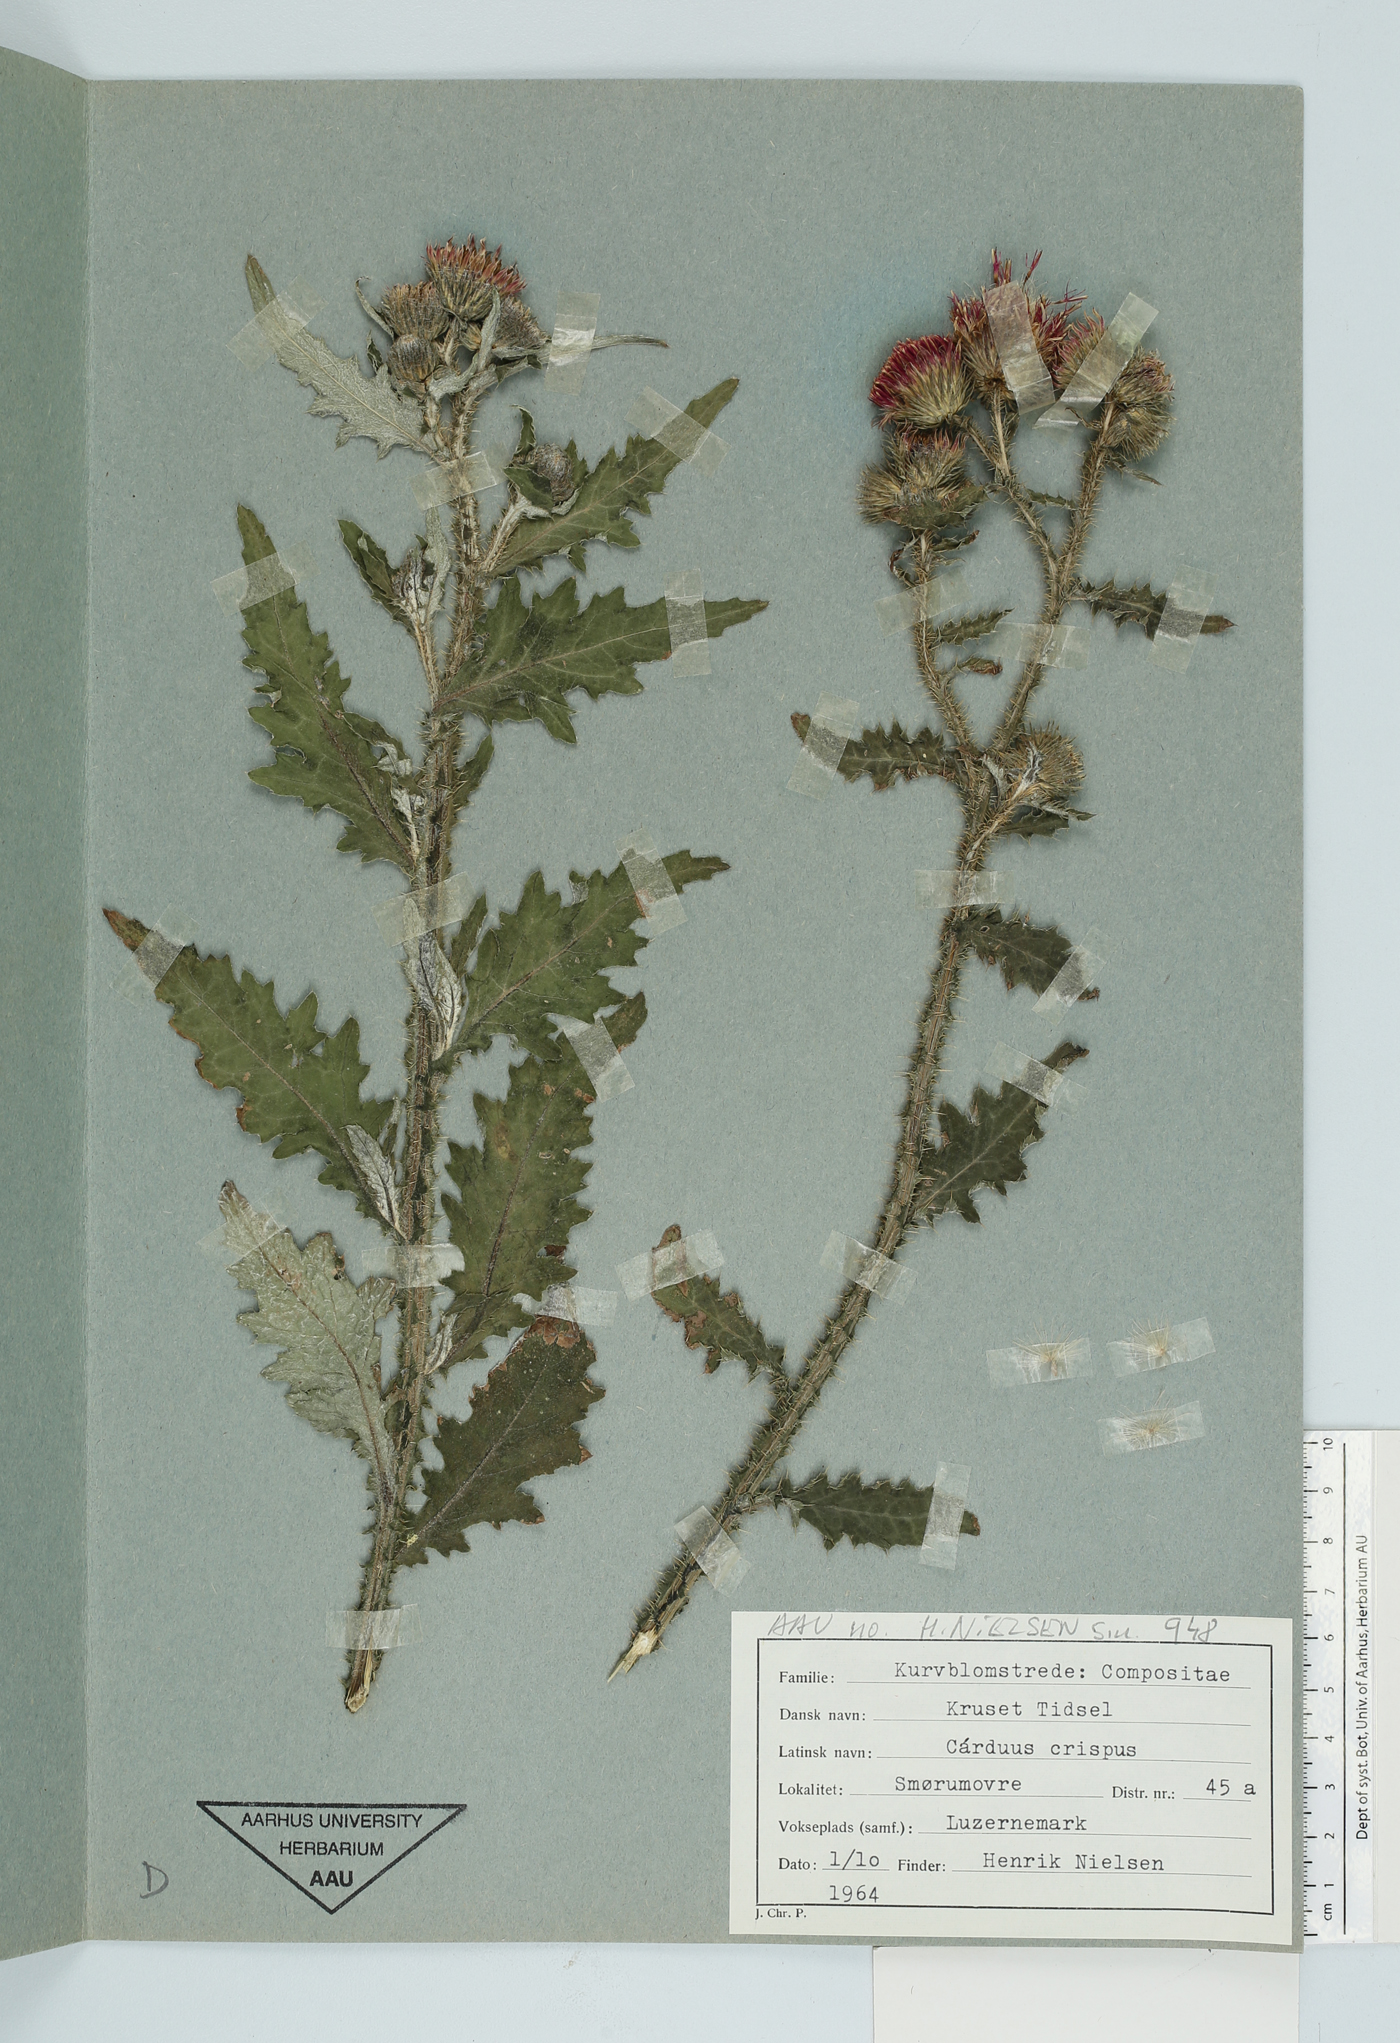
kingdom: Plantae
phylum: Tracheophyta
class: Magnoliopsida
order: Asterales
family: Asteraceae
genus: Carduus
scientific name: Carduus crispus
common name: Welted thistle
